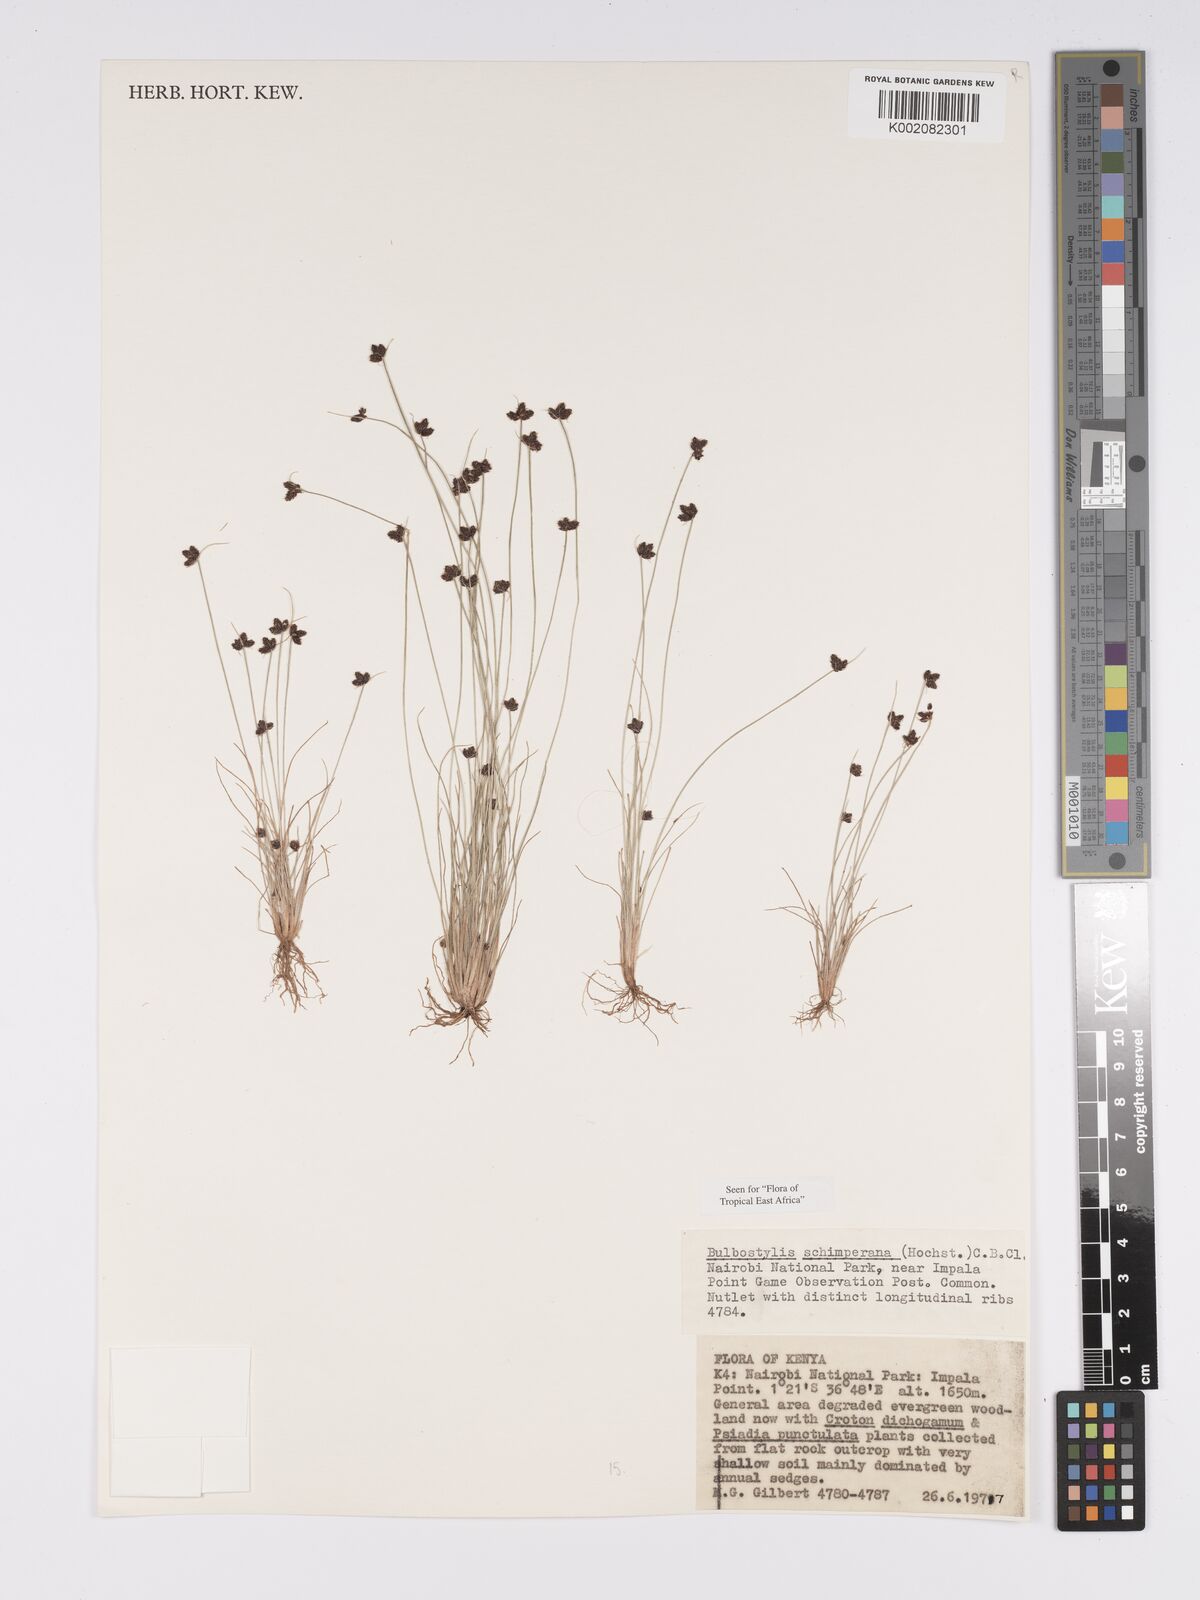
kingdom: Plantae
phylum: Tracheophyta
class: Liliopsida
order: Poales
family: Cyperaceae
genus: Bulbostylis
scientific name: Bulbostylis schimperiana
